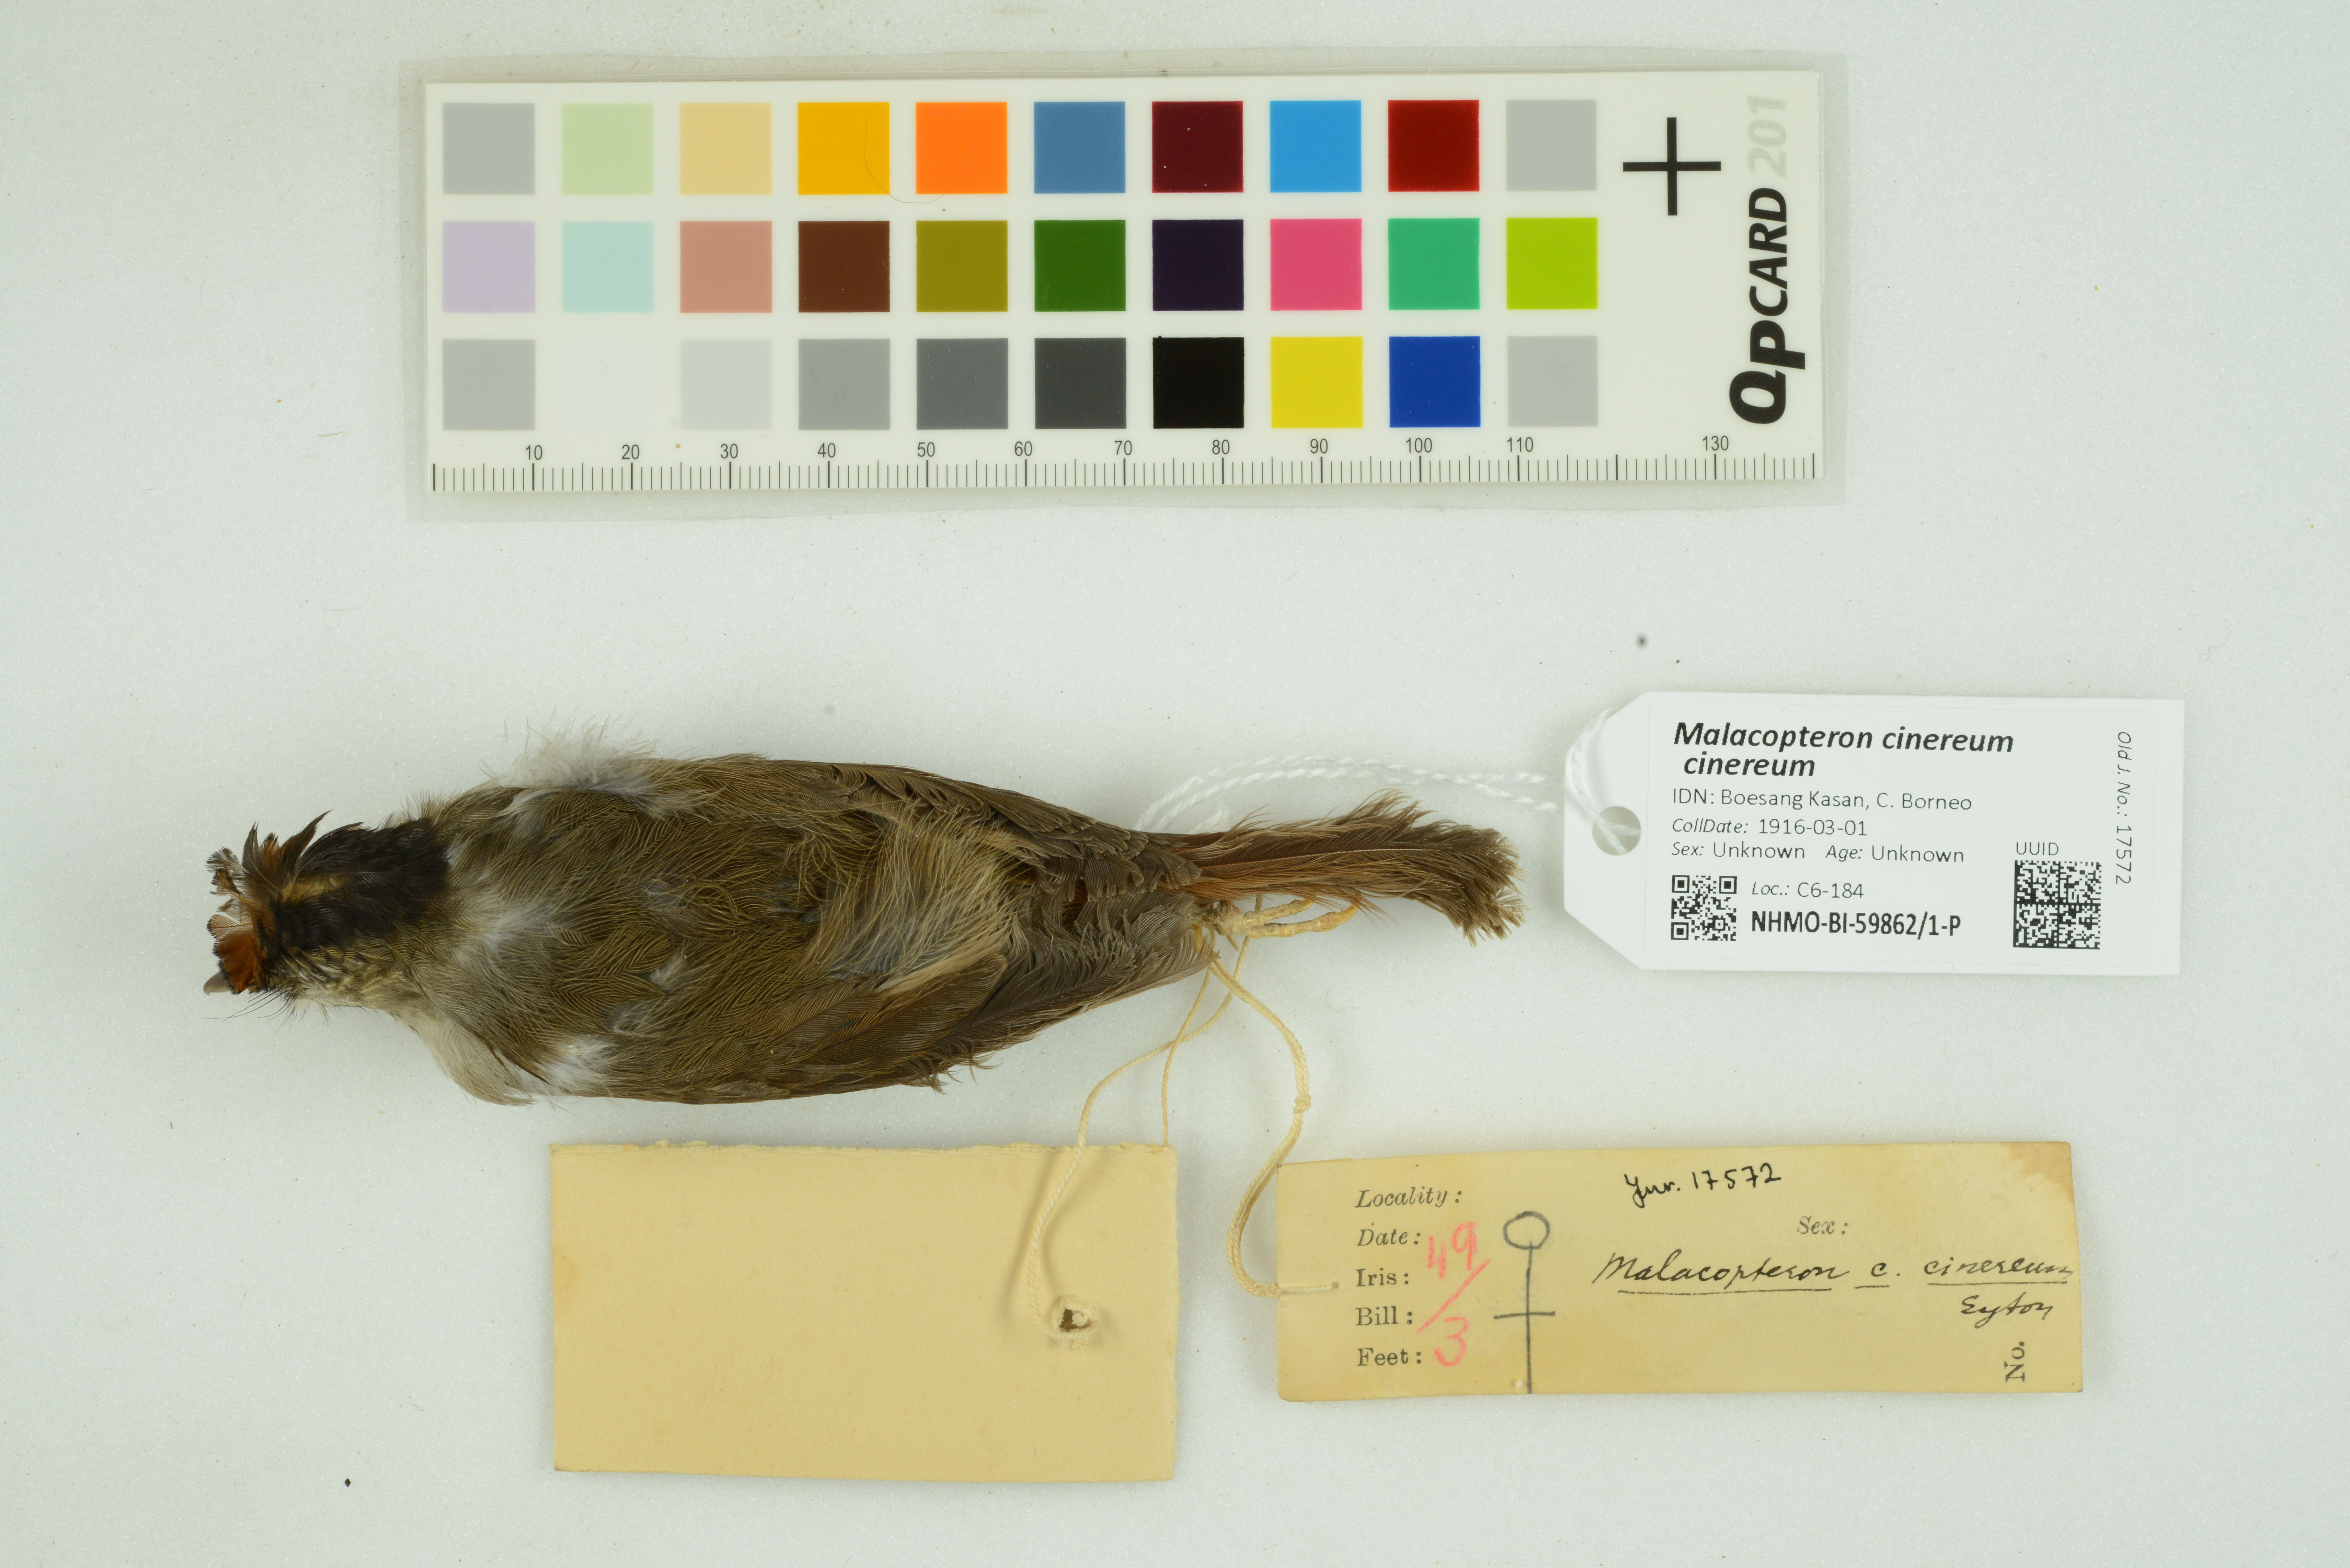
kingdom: Animalia
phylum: Chordata
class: Aves
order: Passeriformes
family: Pellorneidae
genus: Malacopteron
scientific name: Malacopteron cinereum
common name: Scaly-crowned babbler
